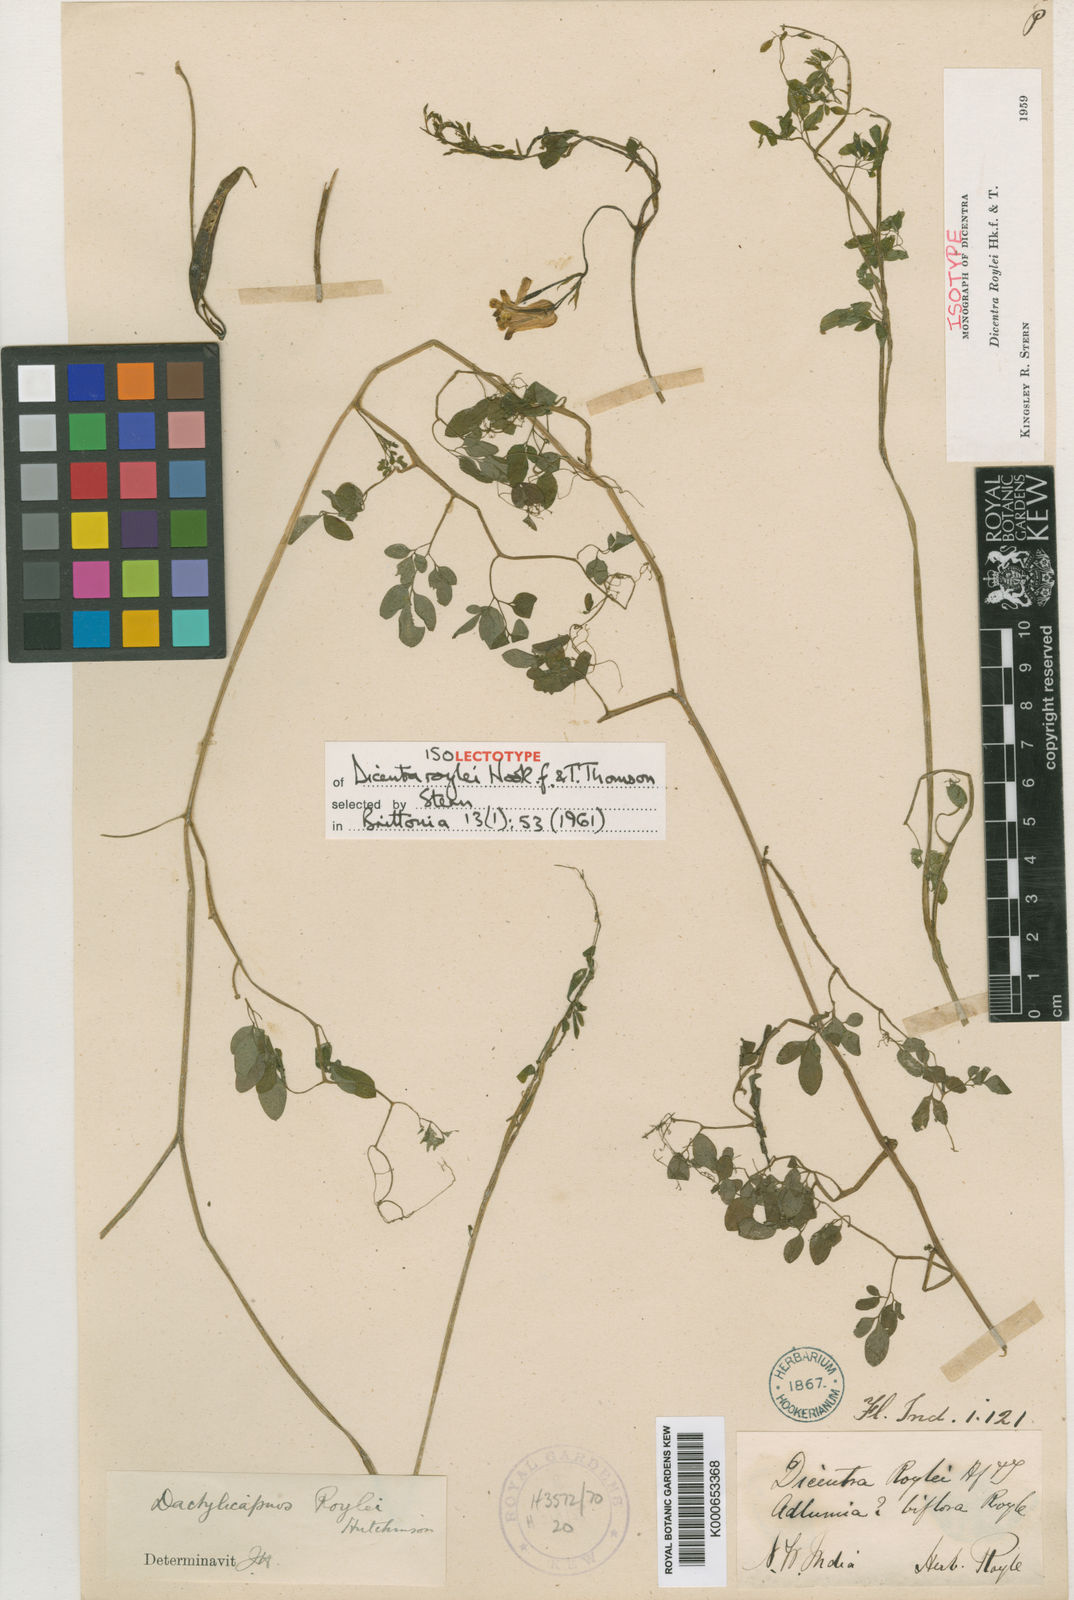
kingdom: Plantae
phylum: Tracheophyta
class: Magnoliopsida
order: Ranunculales
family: Papaveraceae
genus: Dactylicapnos
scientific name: Dactylicapnos roylei
